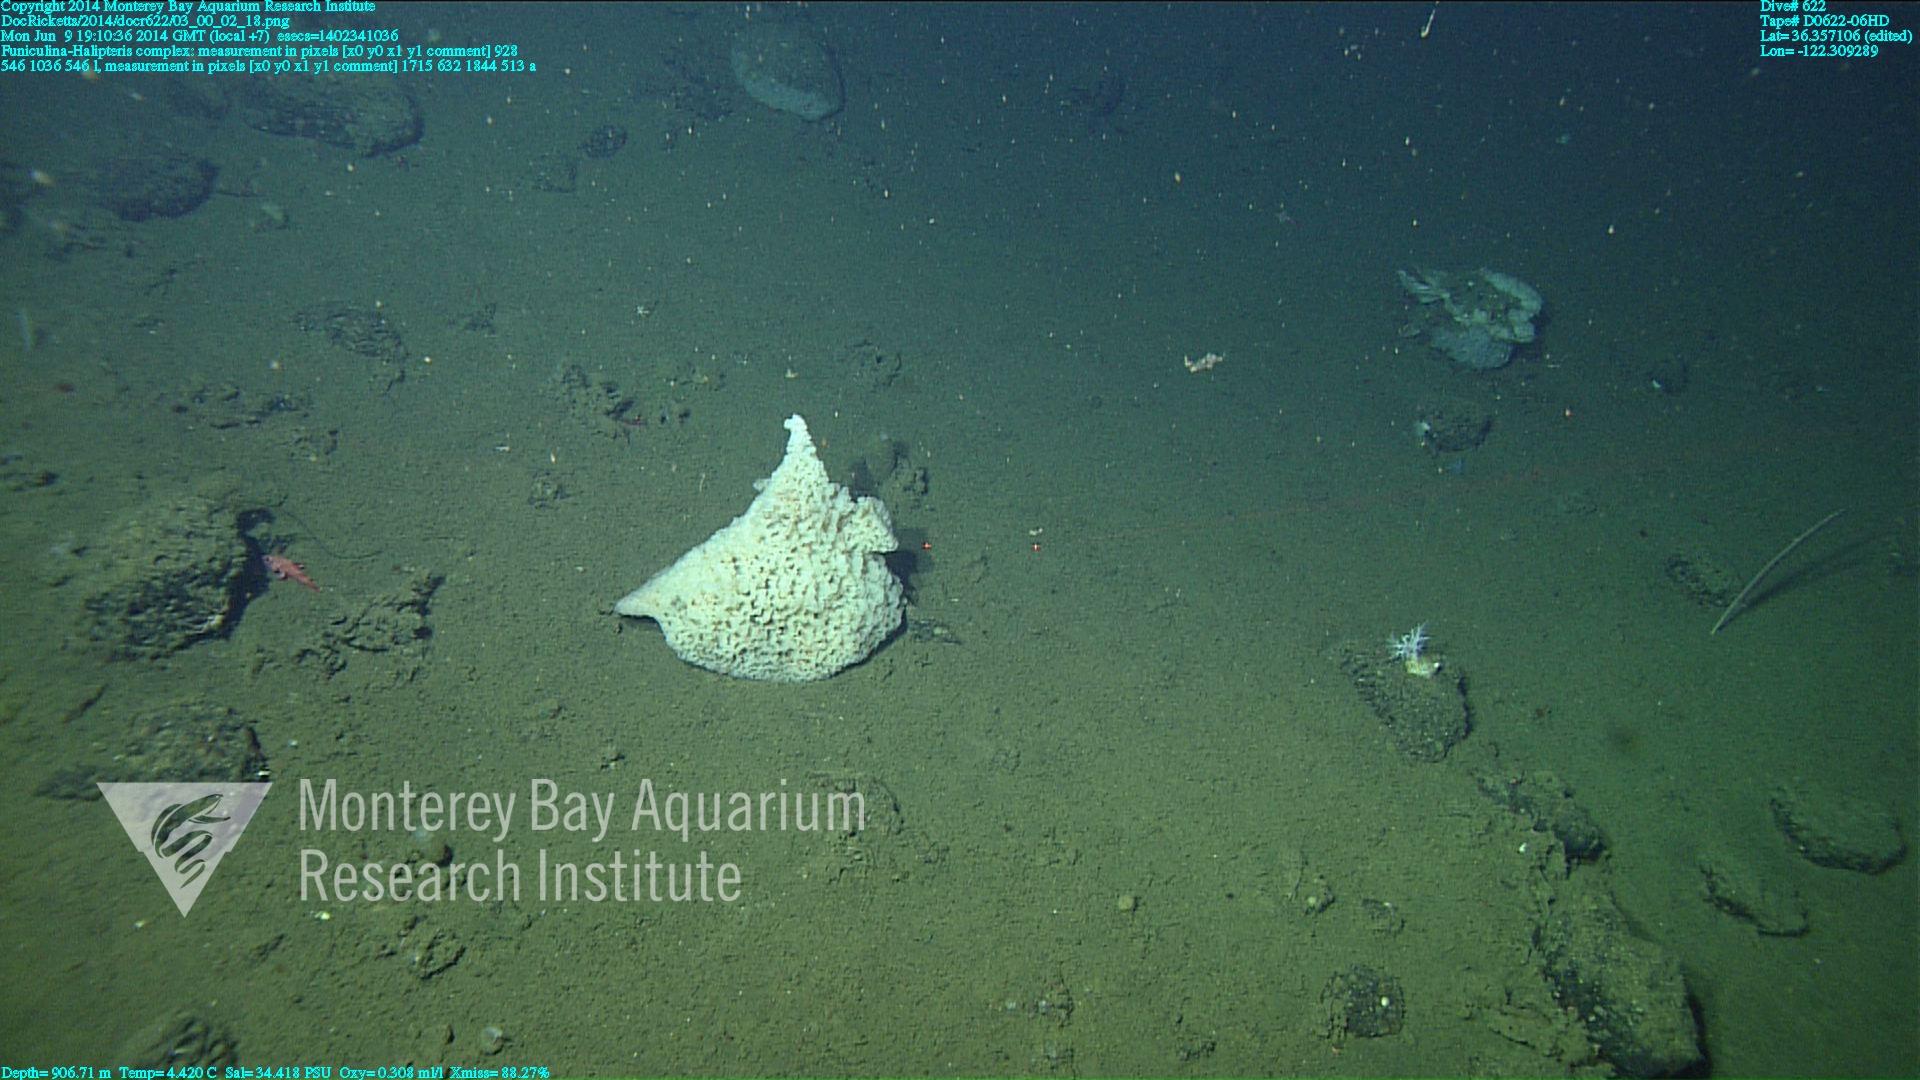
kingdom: Animalia
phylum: Cnidaria
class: Anthozoa
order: Scleralcyonacea
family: Funiculinidae
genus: Funiculina
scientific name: Funiculina
